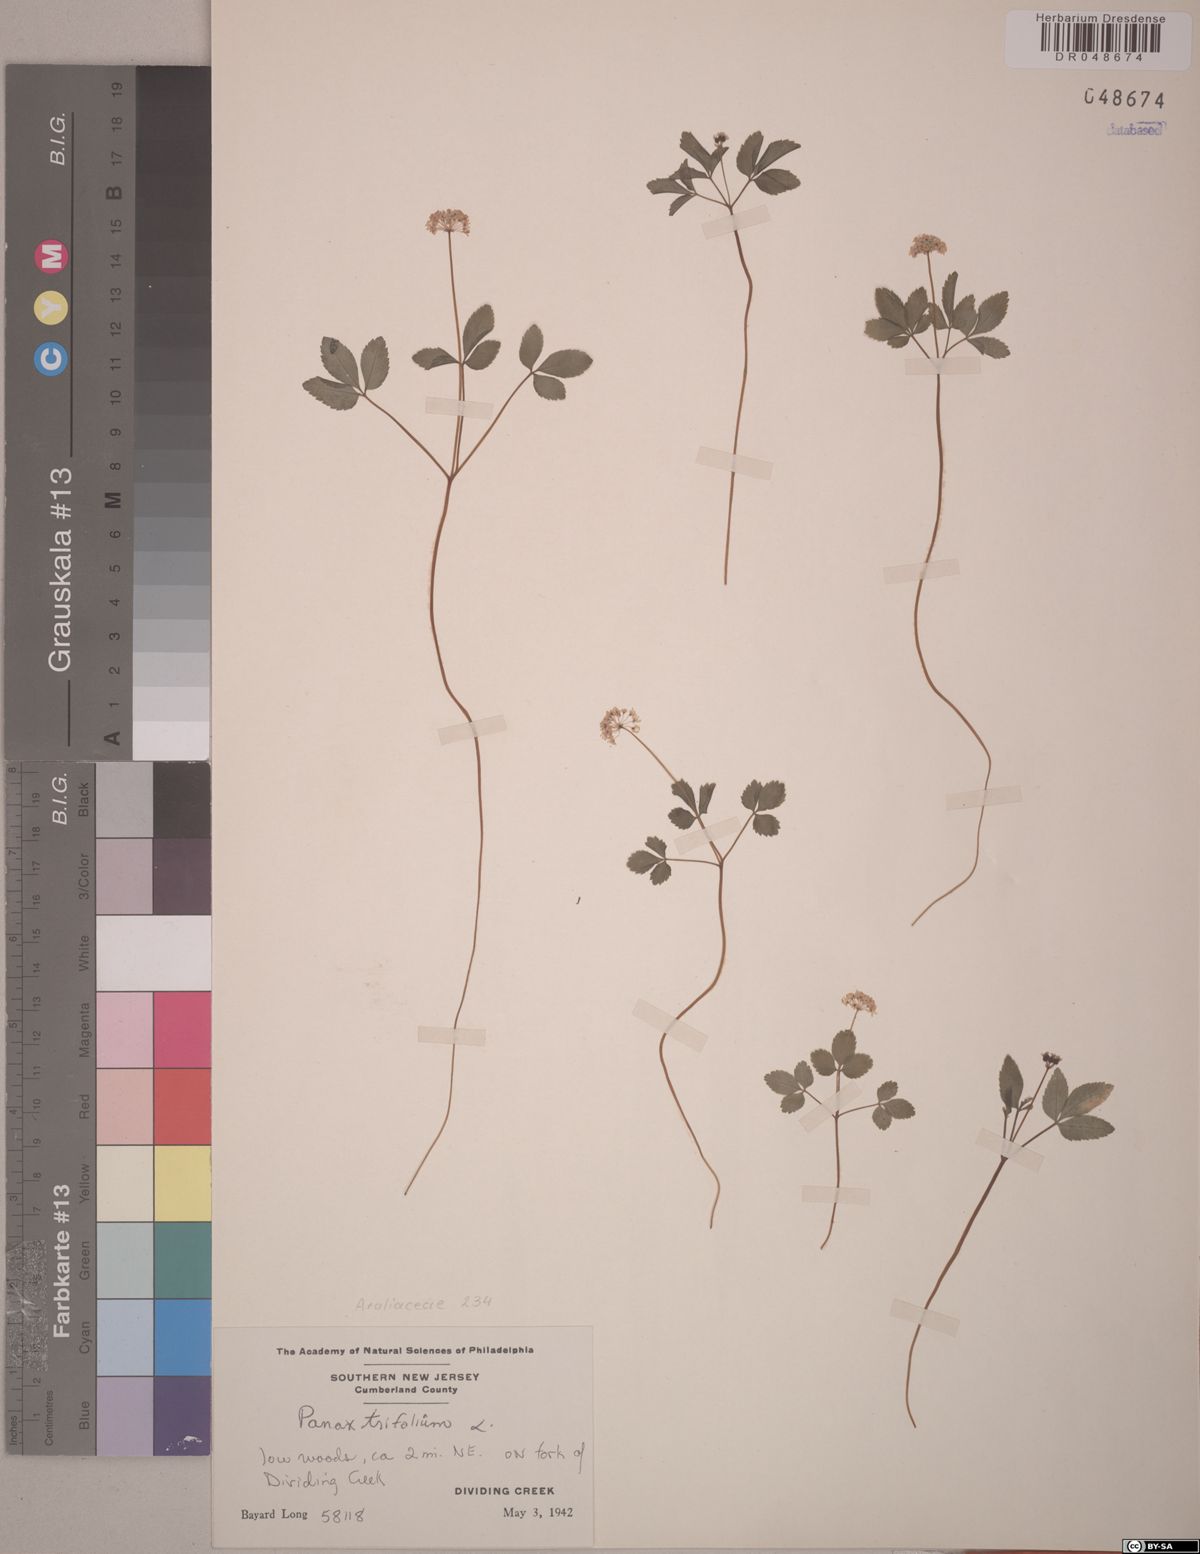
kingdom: Plantae
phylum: Tracheophyta
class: Magnoliopsida
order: Apiales
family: Araliaceae
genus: Panax
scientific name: Panax trifolius
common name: Dwarf ginseng
